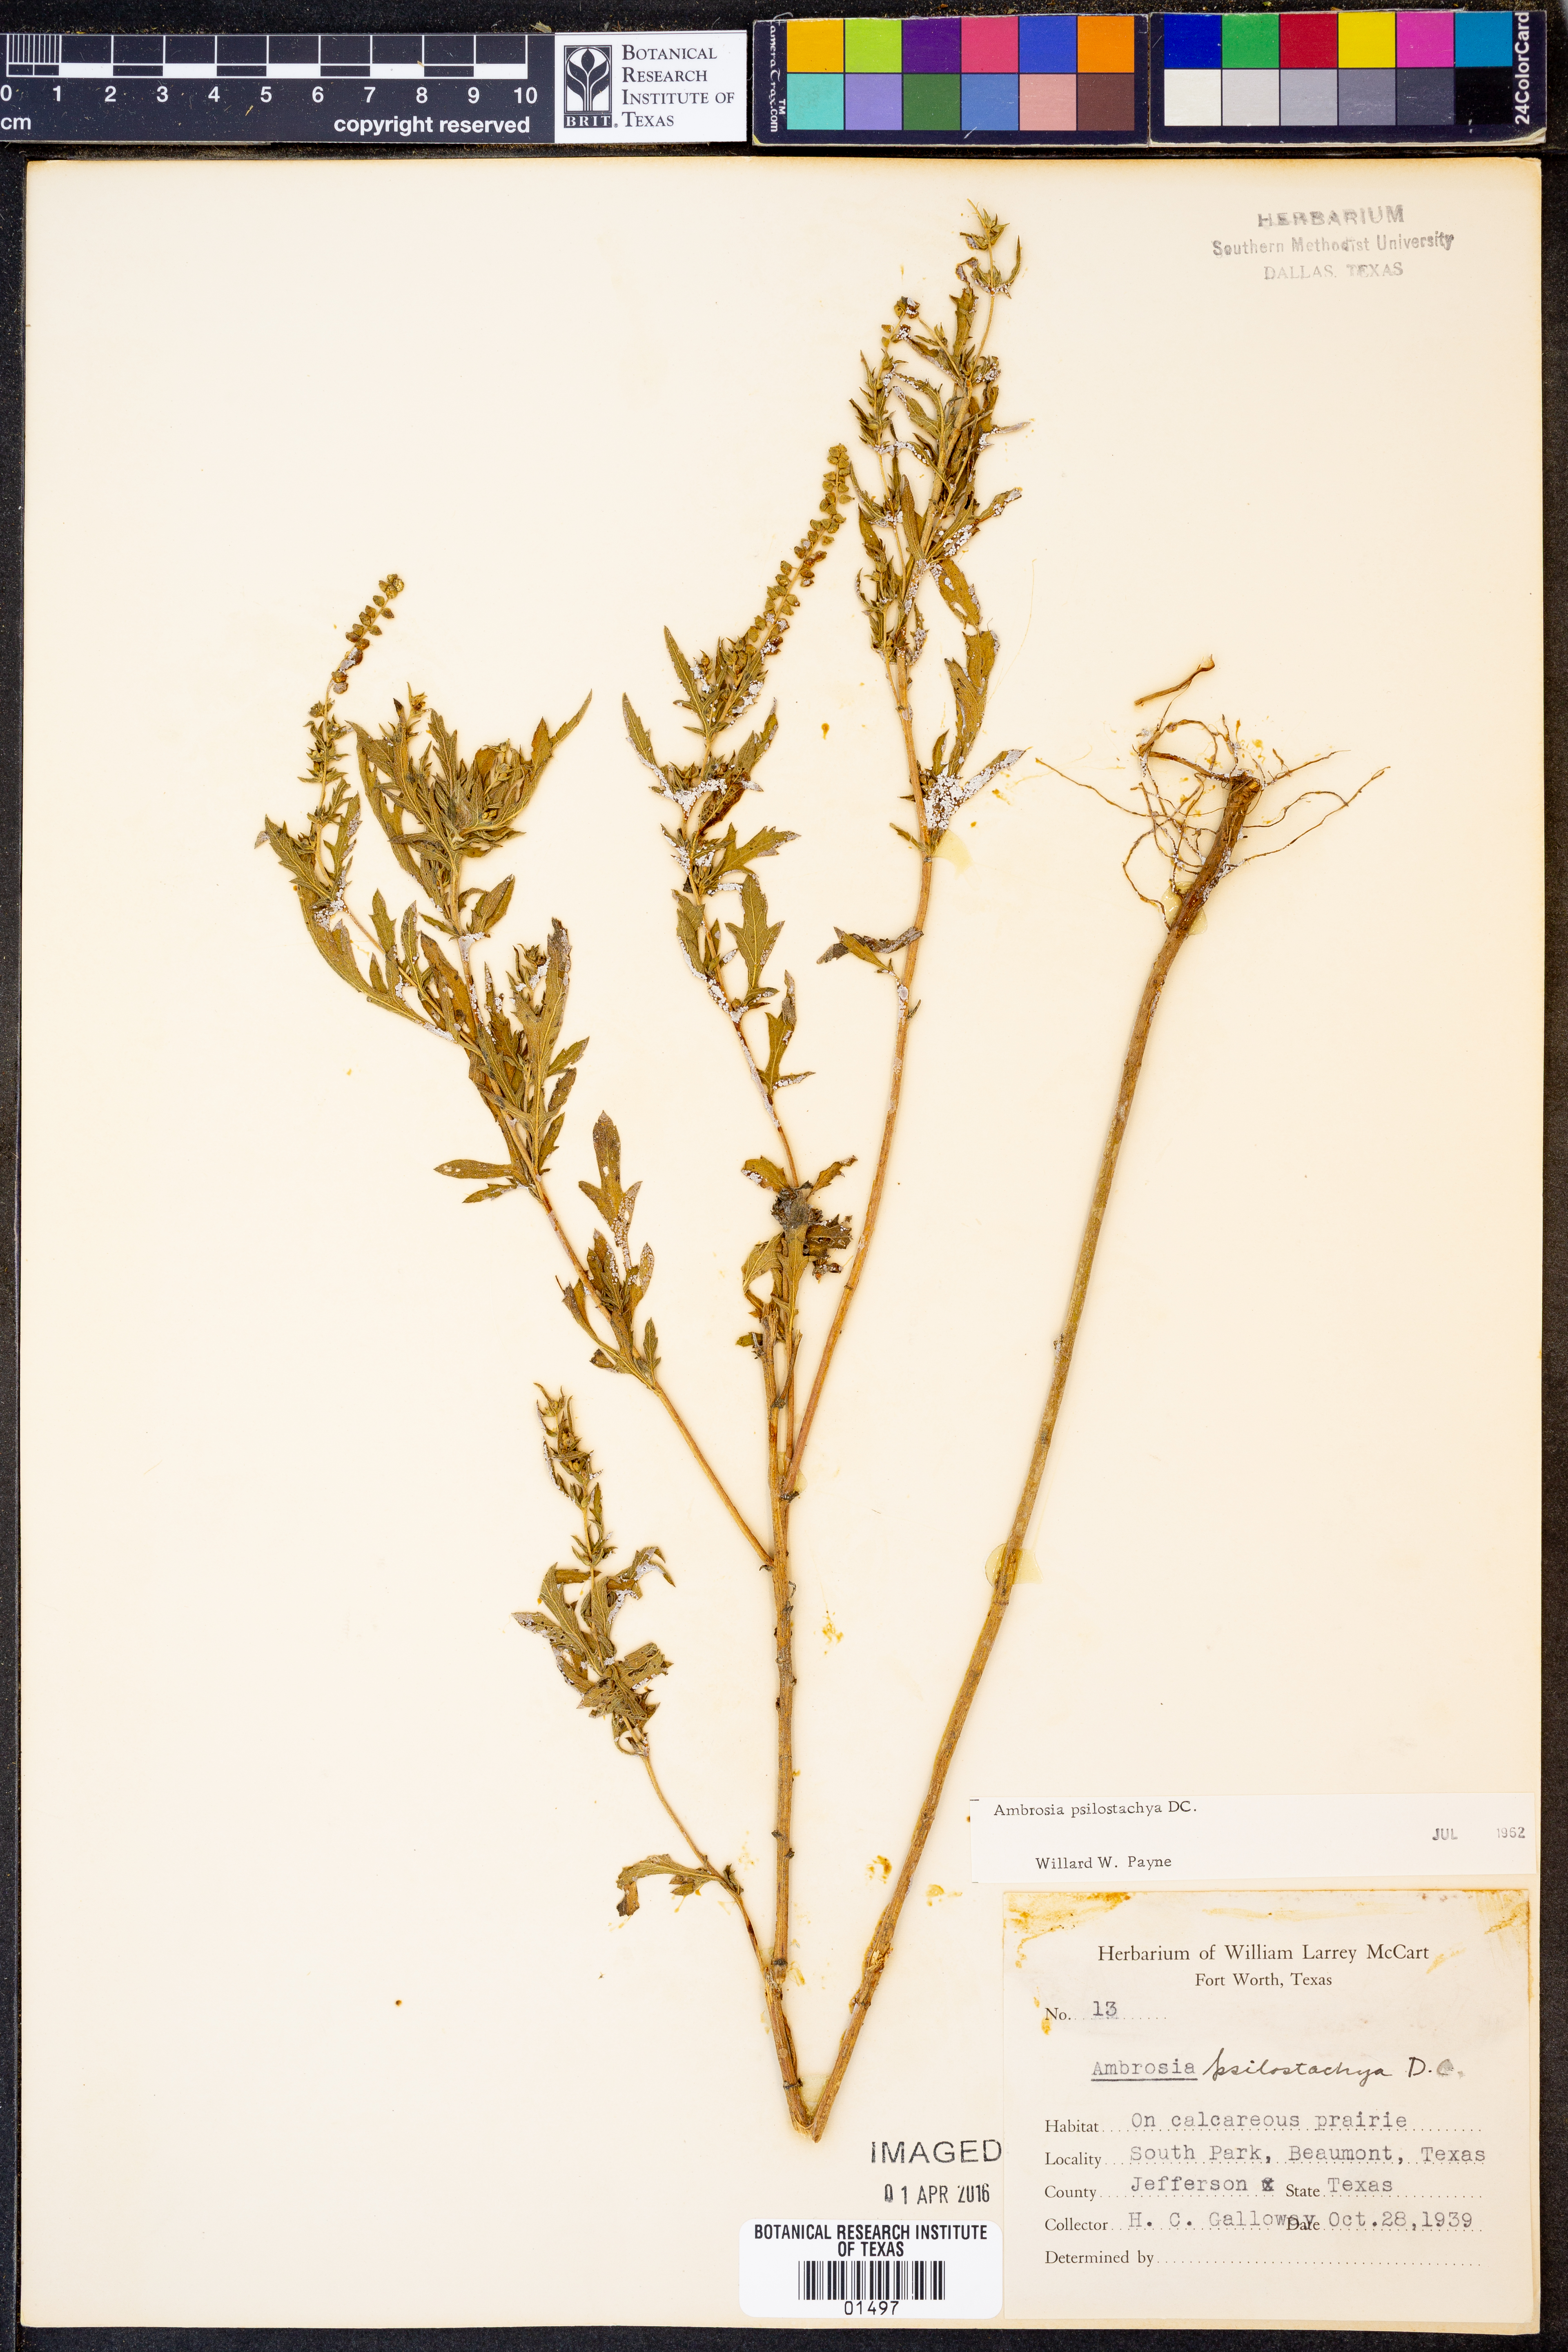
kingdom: Plantae
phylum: Tracheophyta
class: Magnoliopsida
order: Asterales
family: Asteraceae
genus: Ambrosia
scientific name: Ambrosia psilostachya
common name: Perennial ragweed
